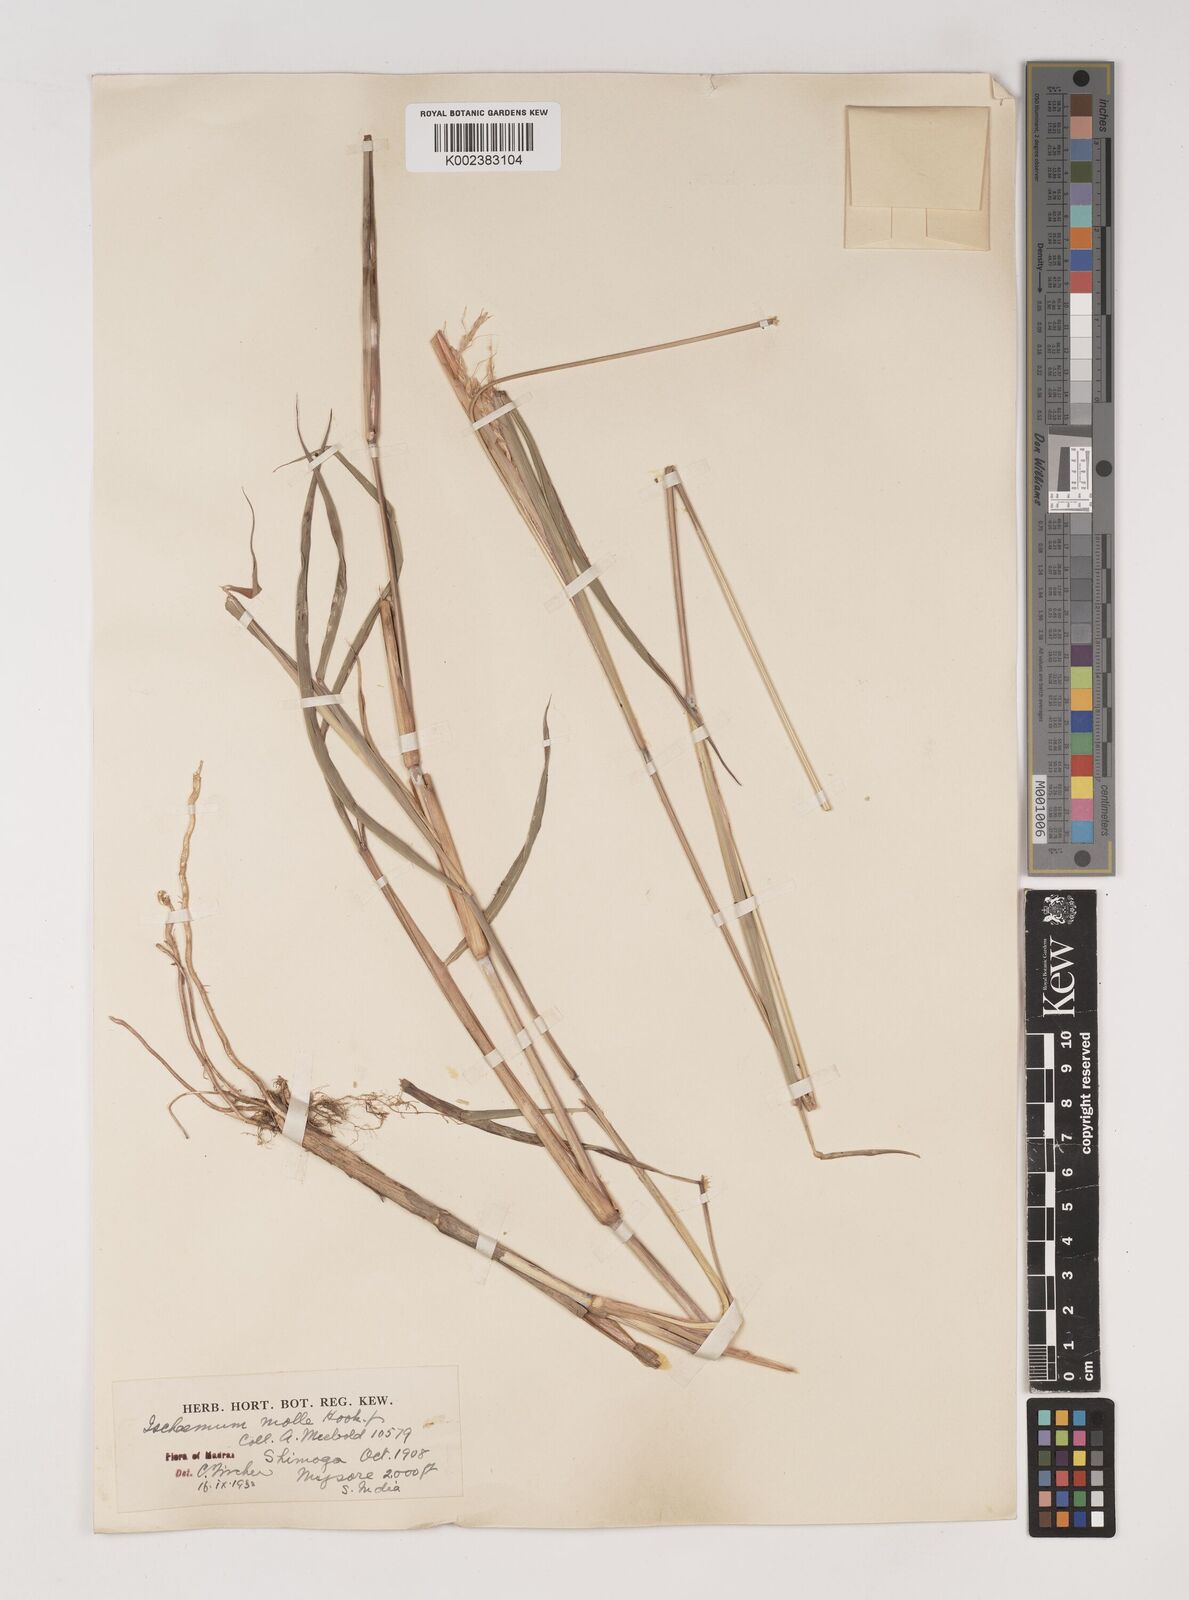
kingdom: Plantae
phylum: Tracheophyta
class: Liliopsida
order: Poales
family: Poaceae
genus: Ischaemum
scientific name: Ischaemum molle
